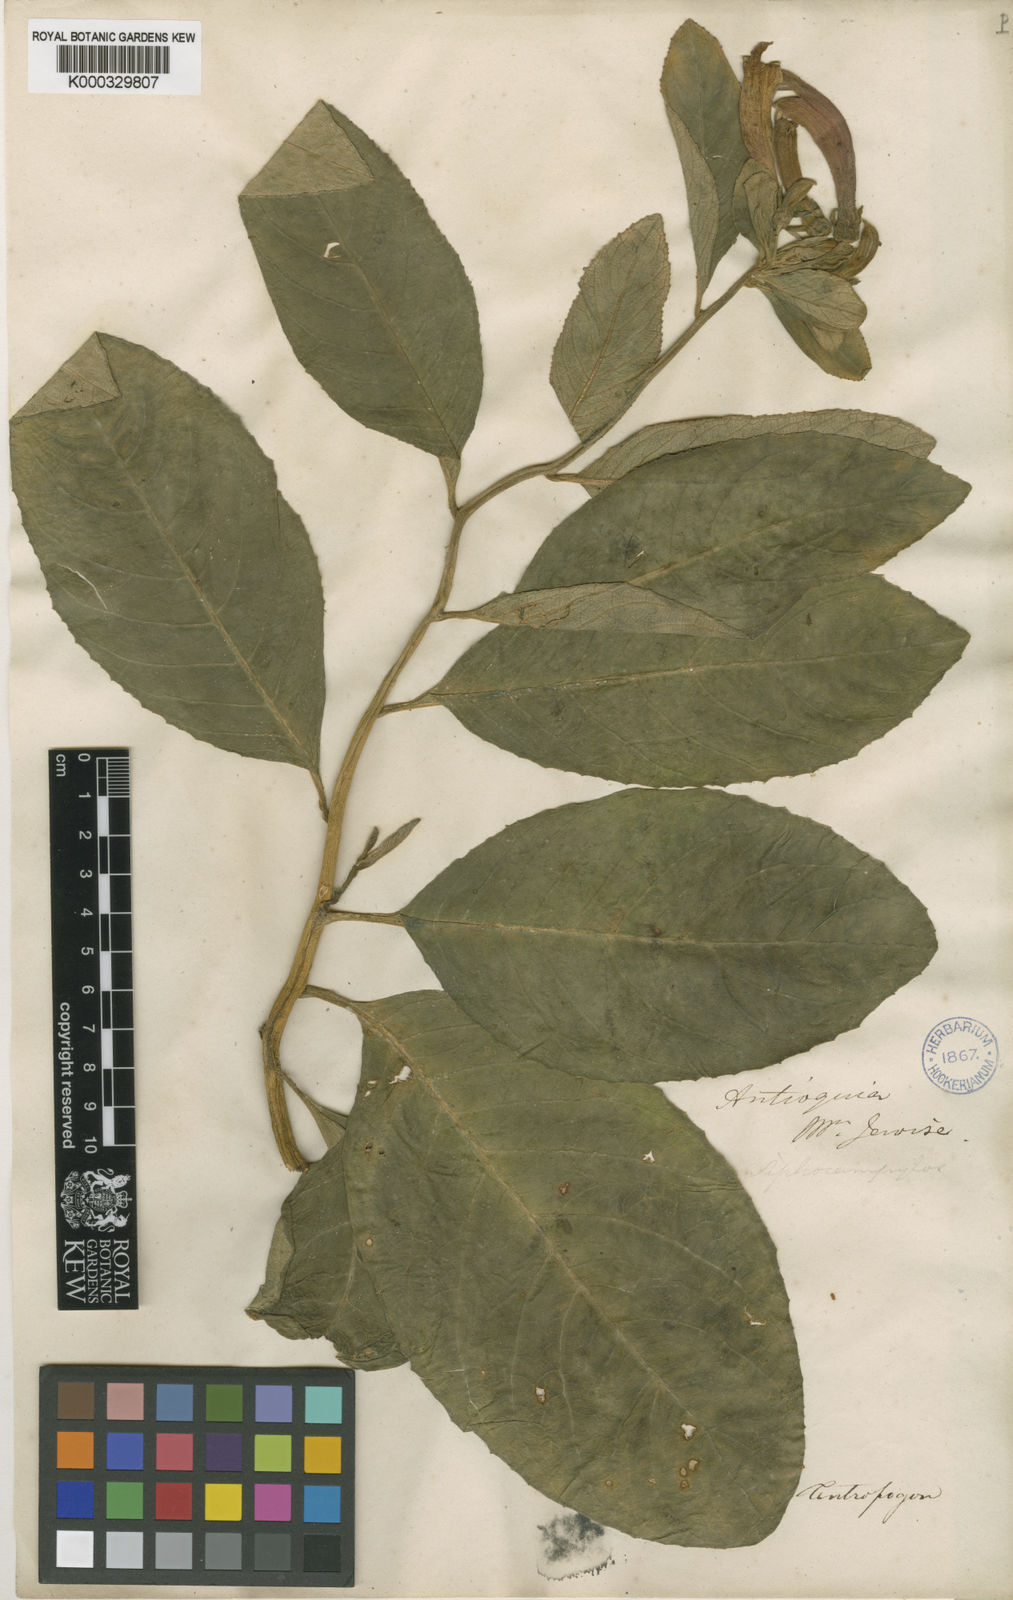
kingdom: Plantae
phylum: Tracheophyta
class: Magnoliopsida
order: Asterales
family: Campanulaceae
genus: Centropogon
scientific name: Centropogon vernicosus
